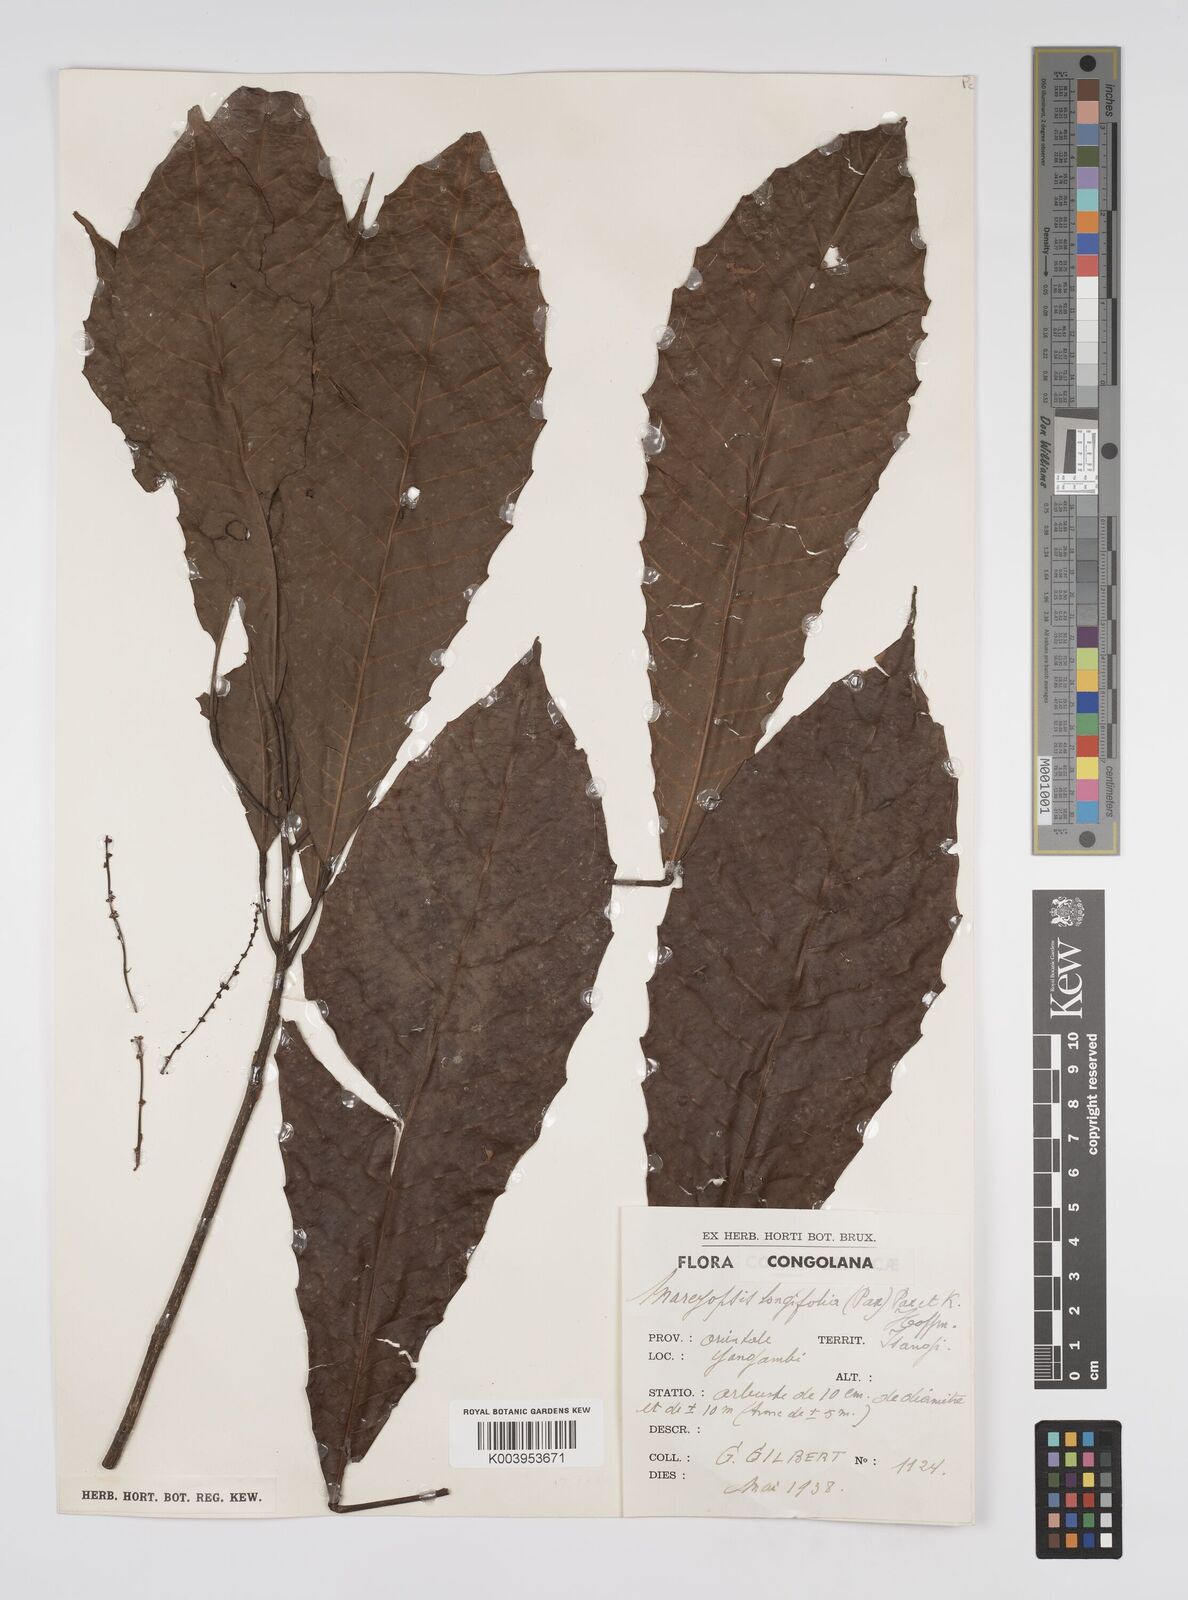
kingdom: Plantae
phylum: Tracheophyta
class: Magnoliopsida
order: Malpighiales
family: Euphorbiaceae
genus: Mareyopsis
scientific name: Mareyopsis longifolia
